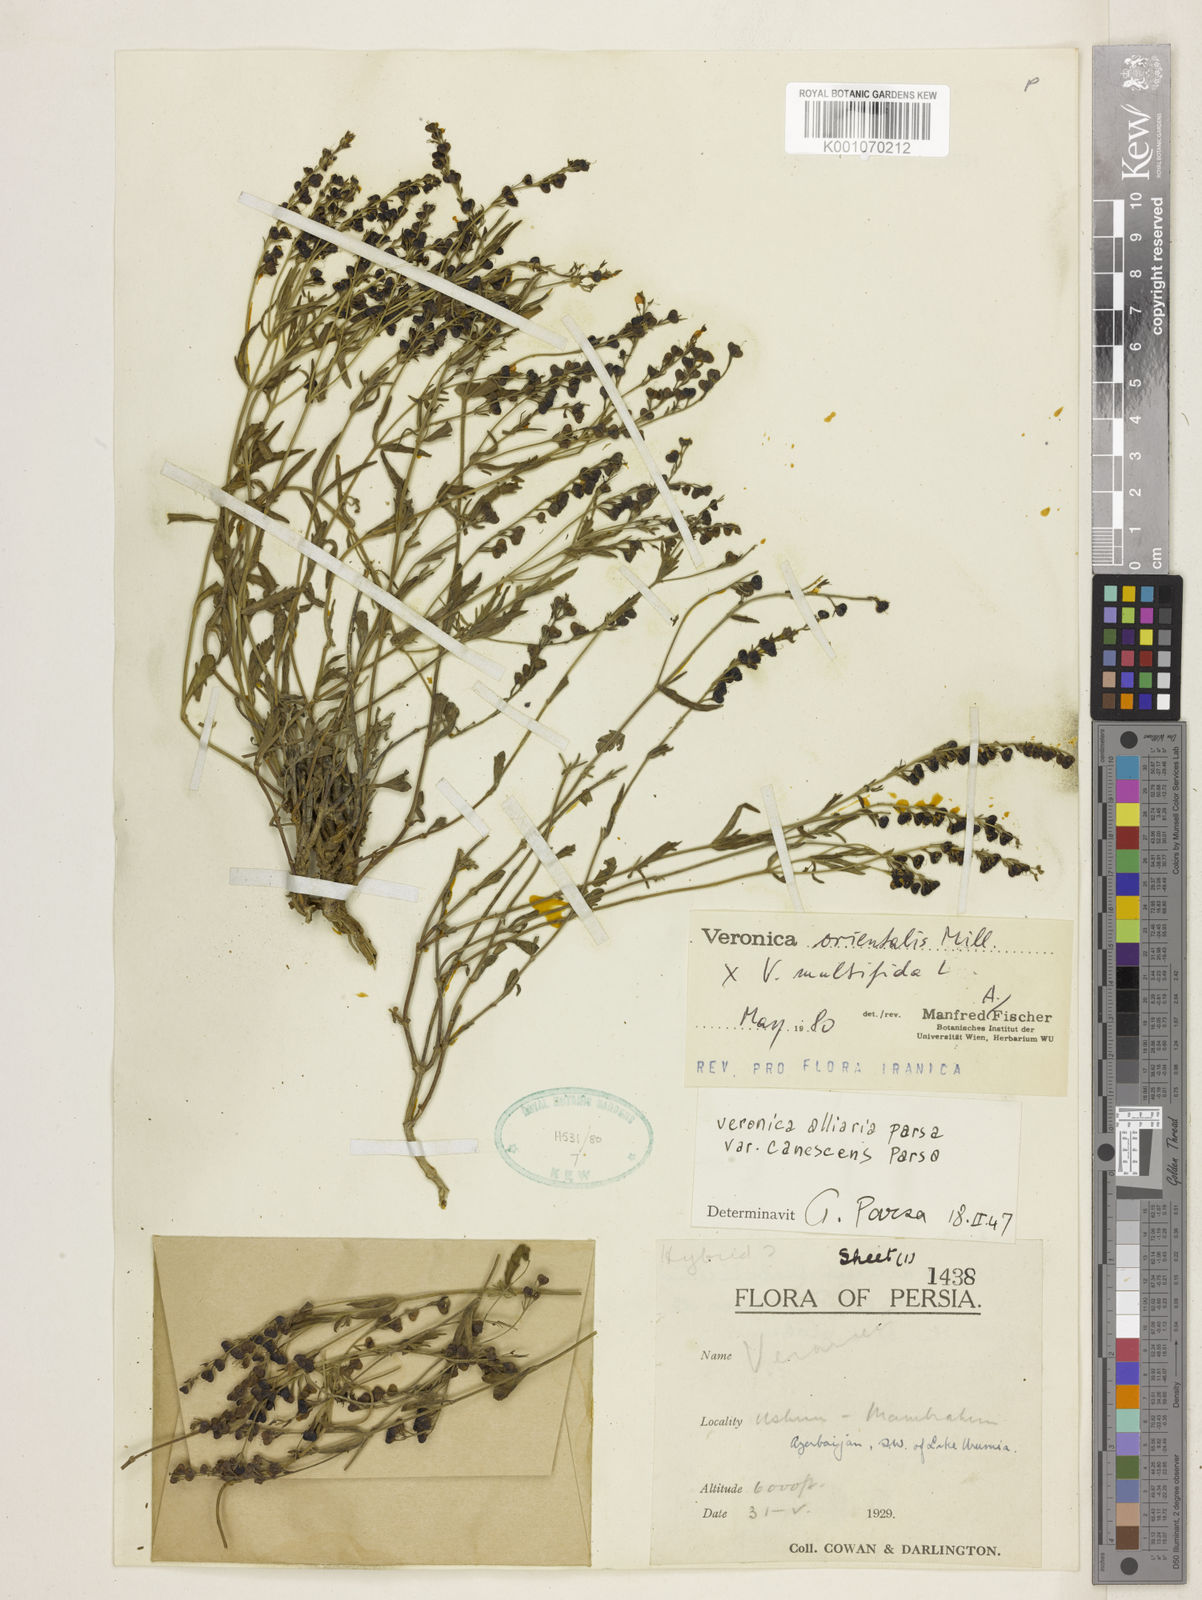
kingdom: Plantae
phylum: Tracheophyta
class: Magnoliopsida
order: Lamiales
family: Plantaginaceae
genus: Veronica
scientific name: Veronica orientalis
